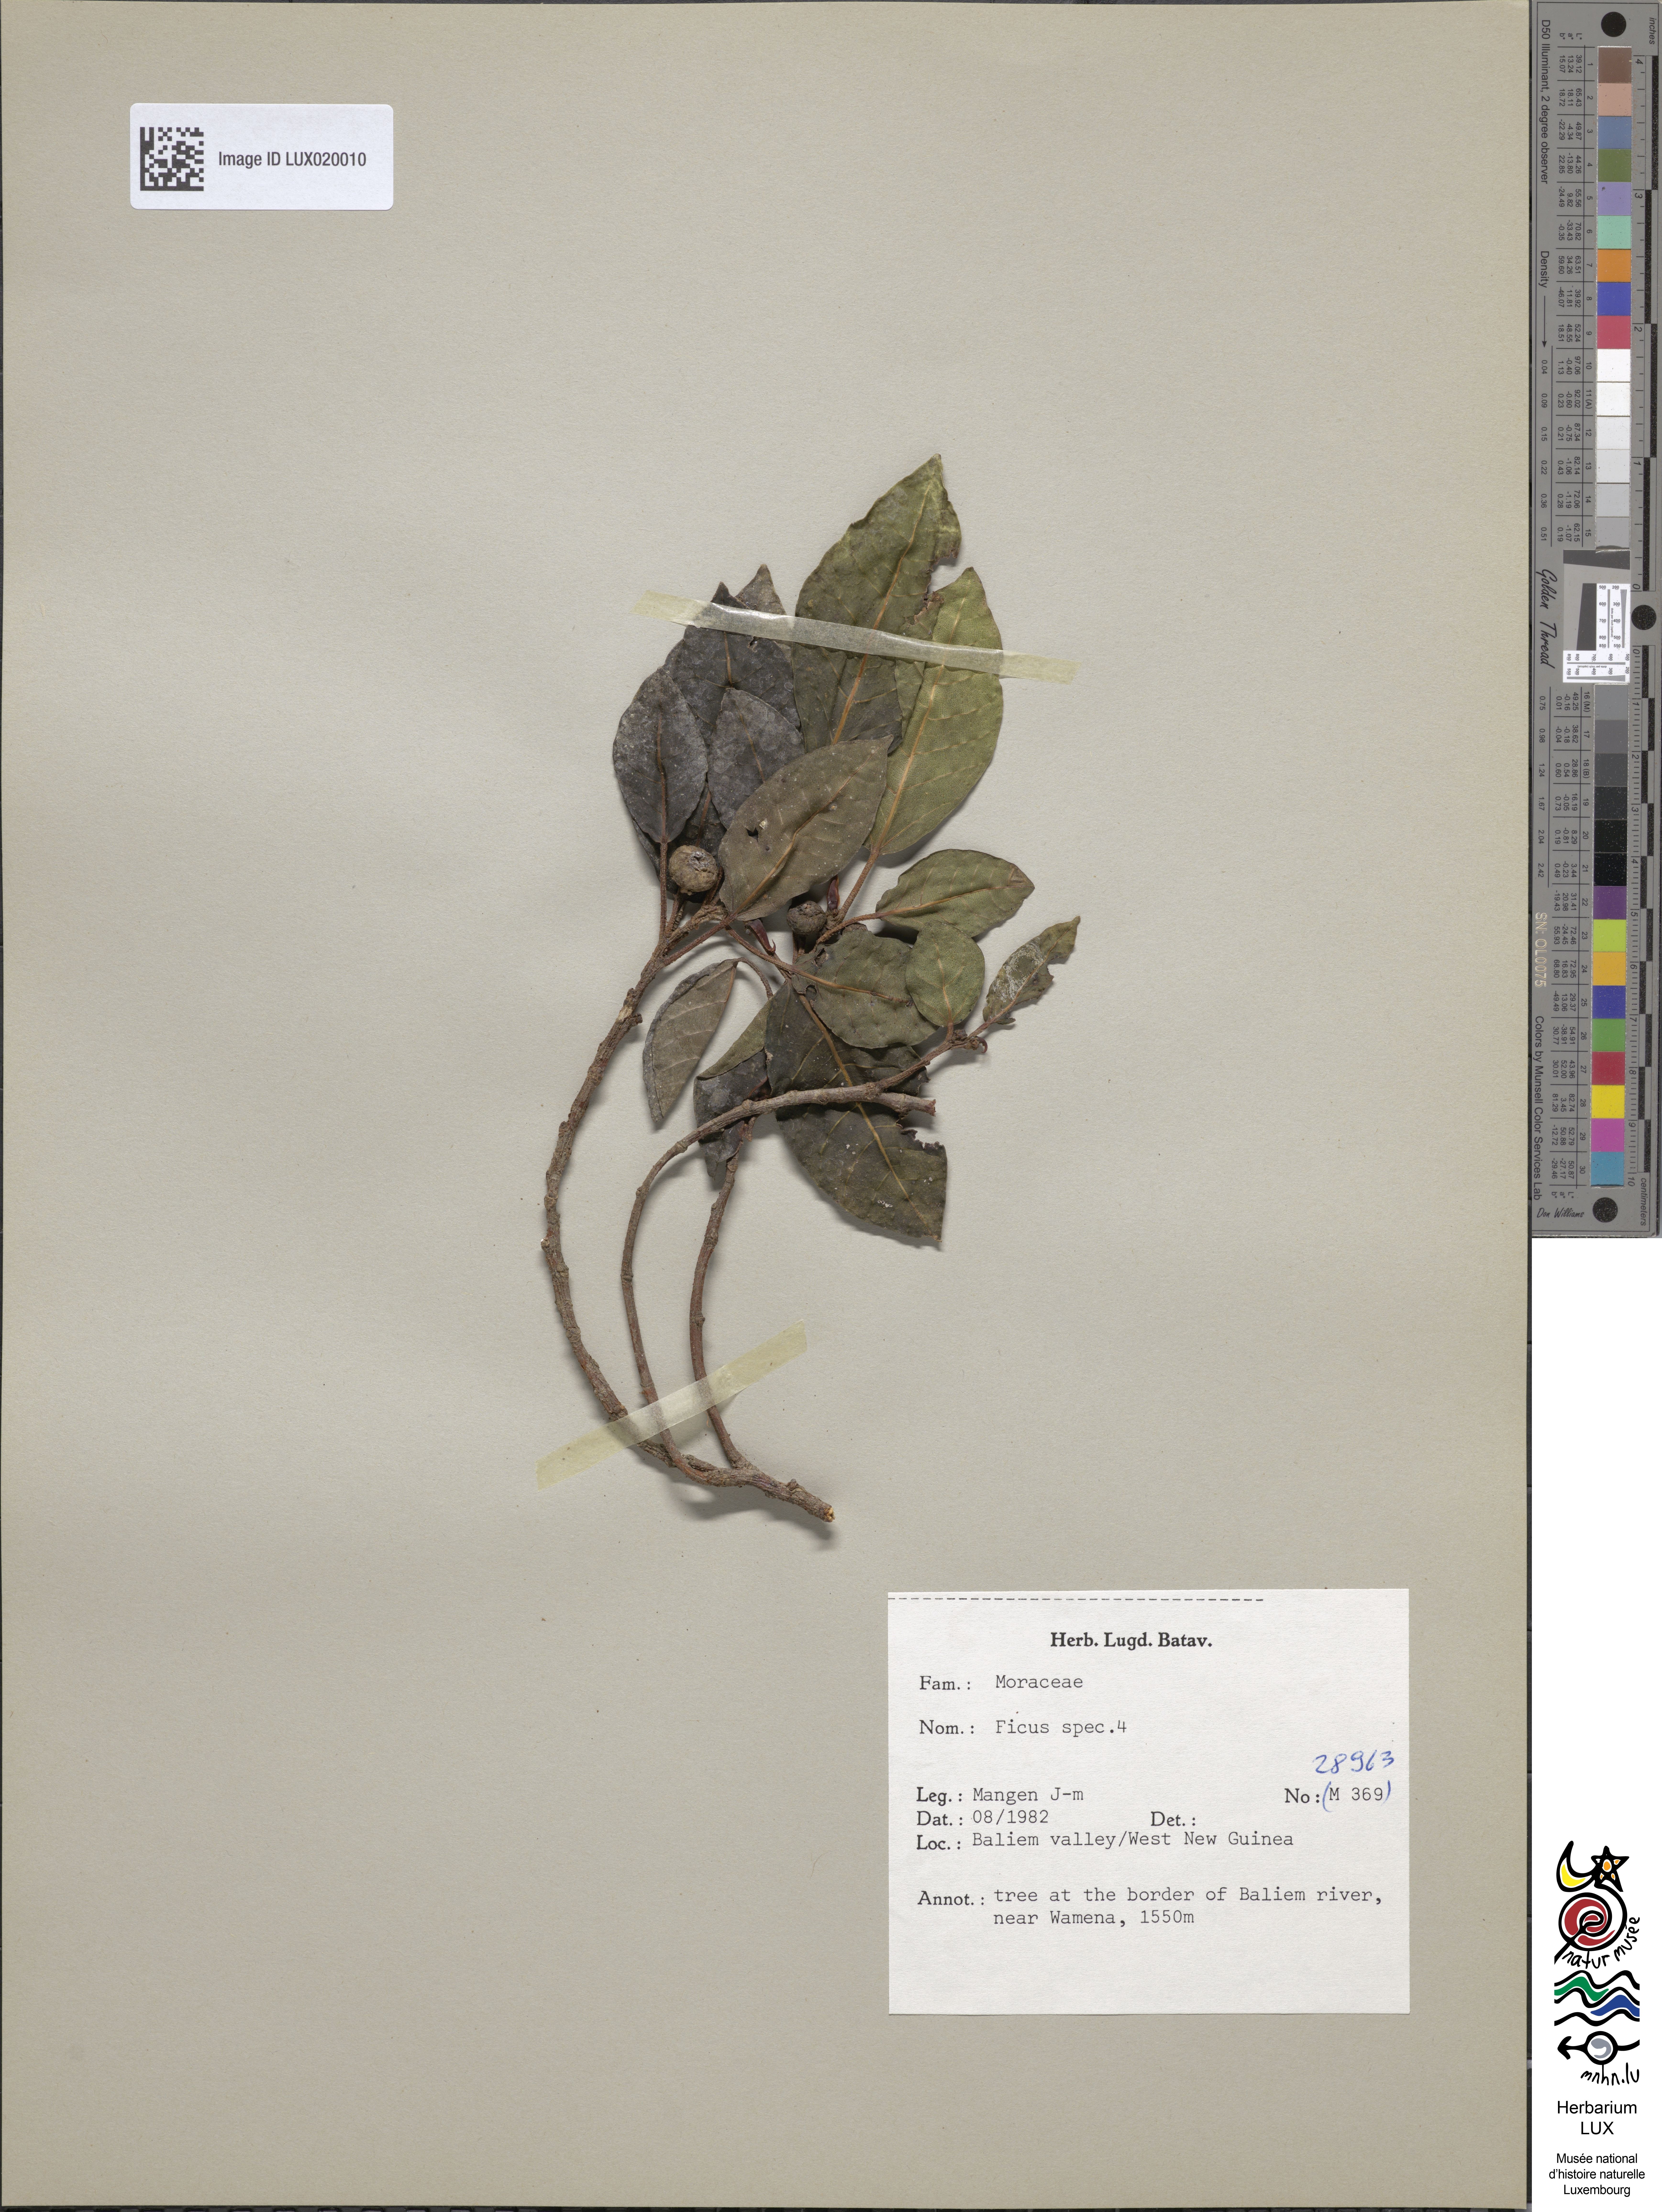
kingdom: Plantae
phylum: Tracheophyta
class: Magnoliopsida
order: Rosales
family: Moraceae
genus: Ficus
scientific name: Ficus
